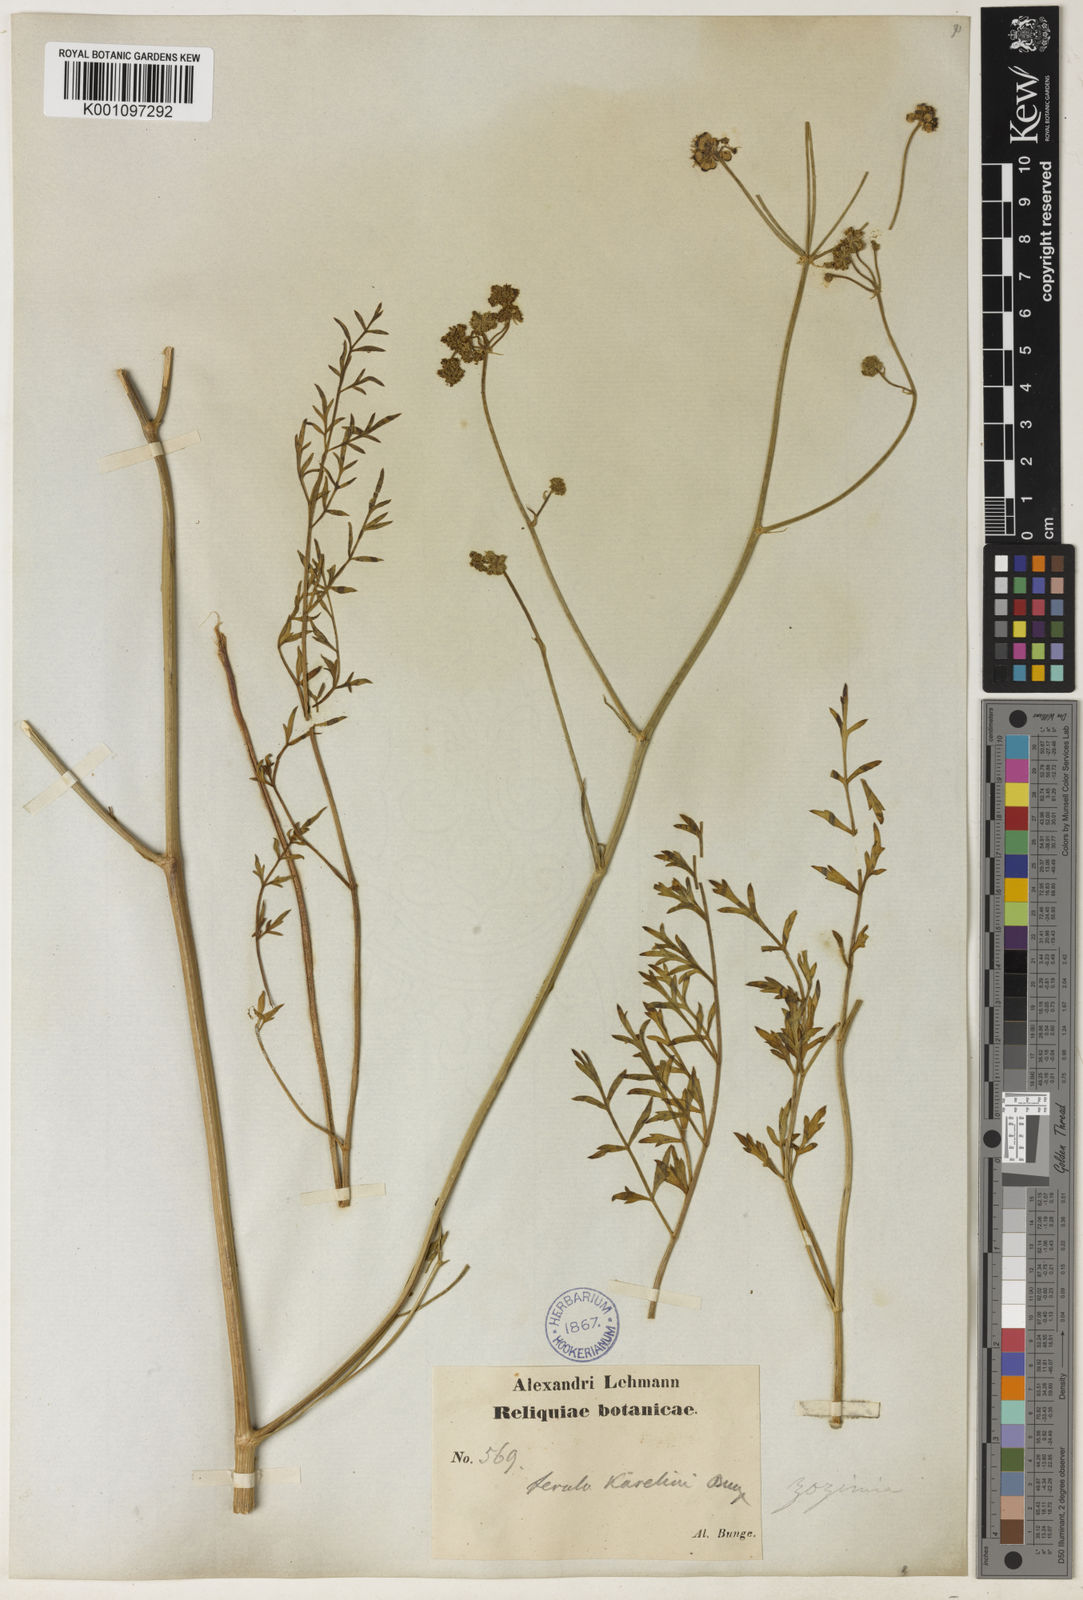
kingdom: Plantae
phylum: Tracheophyta
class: Magnoliopsida
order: Apiales
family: Apiaceae
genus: Ferula
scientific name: Ferula karelinii
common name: Kumsabsi
